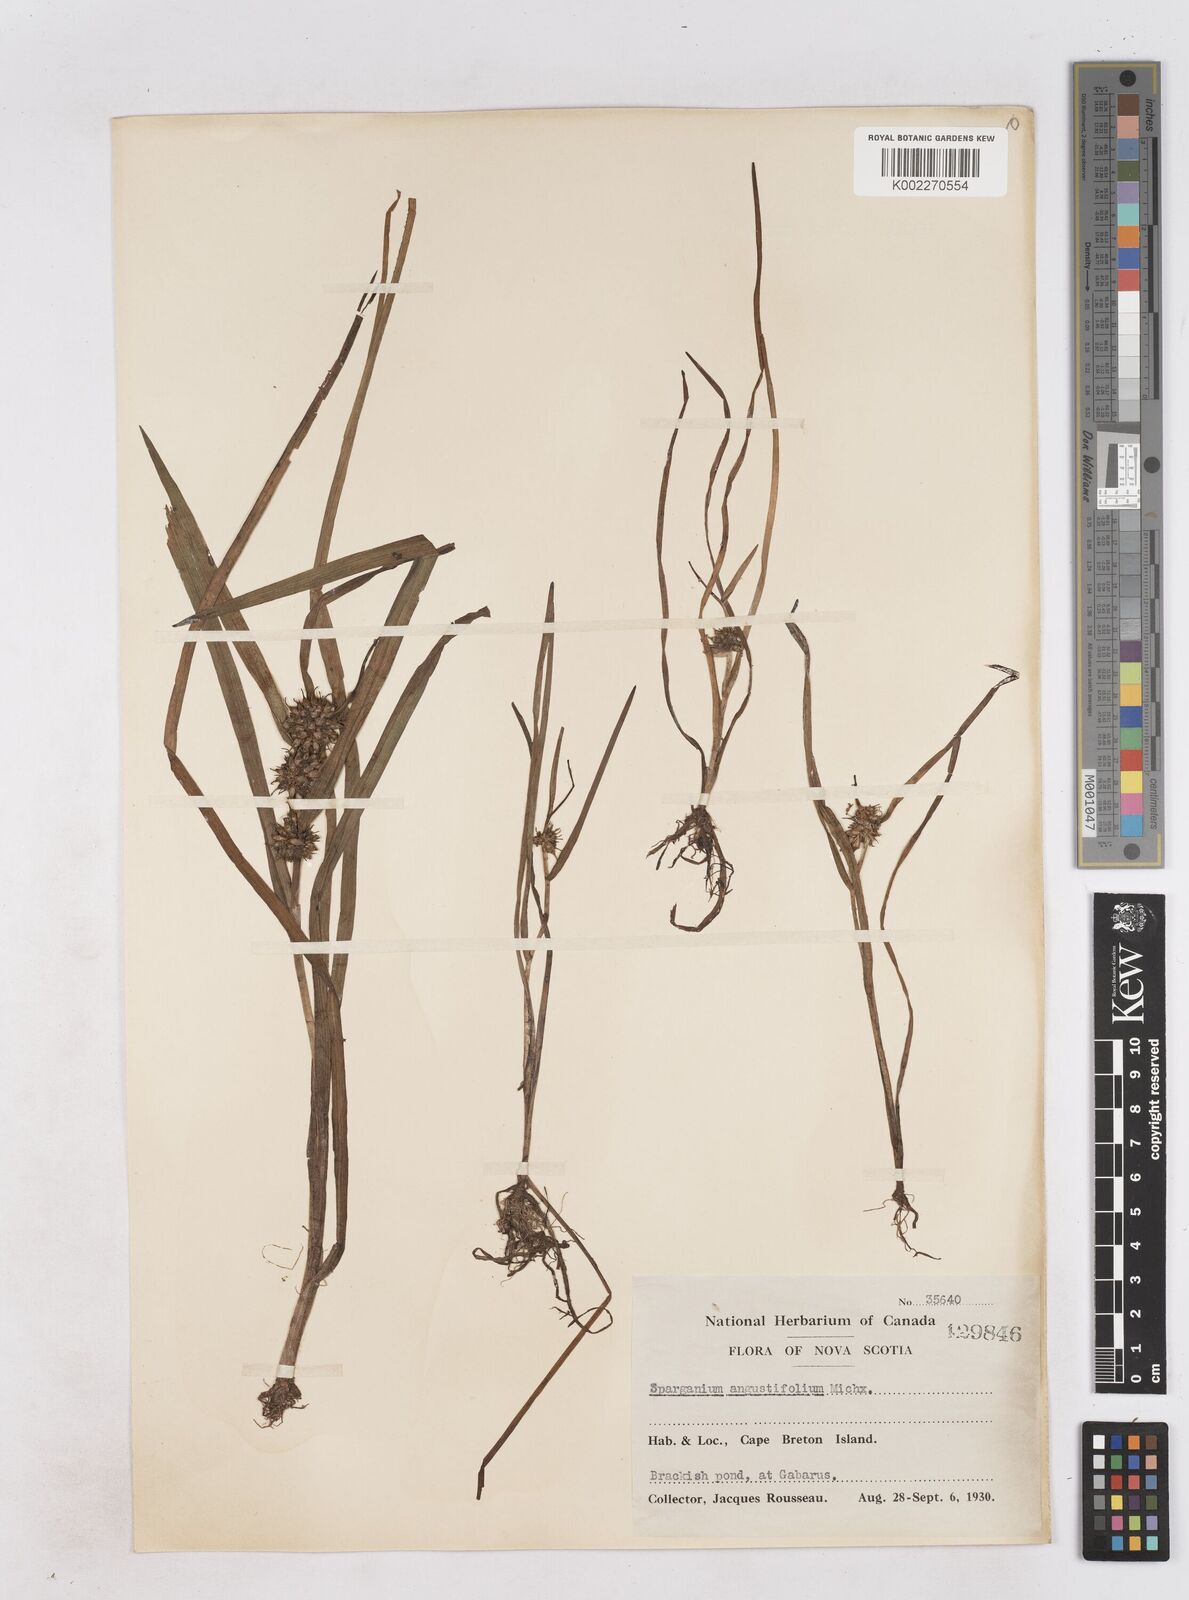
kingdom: Plantae
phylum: Tracheophyta
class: Liliopsida
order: Poales
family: Typhaceae
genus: Sparganium
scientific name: Sparganium angustifolium
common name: Floating bur-reed
